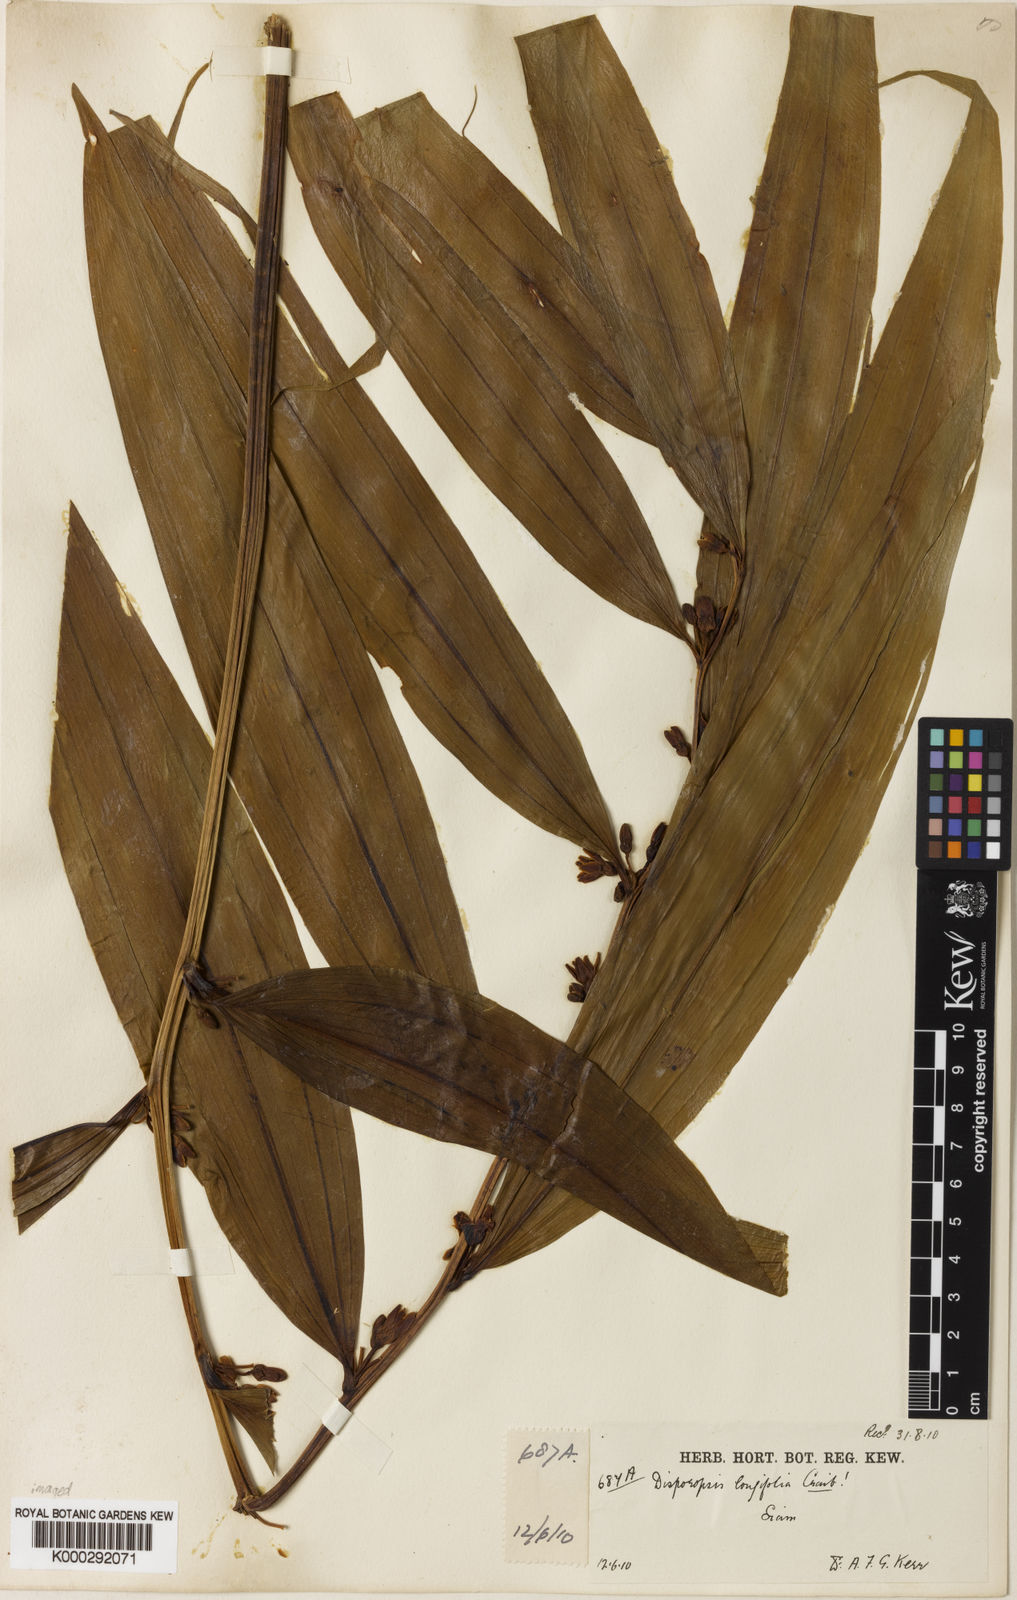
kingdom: Plantae
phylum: Tracheophyta
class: Liliopsida
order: Asparagales
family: Asparagaceae
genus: Disporopsis
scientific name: Disporopsis longifolia
